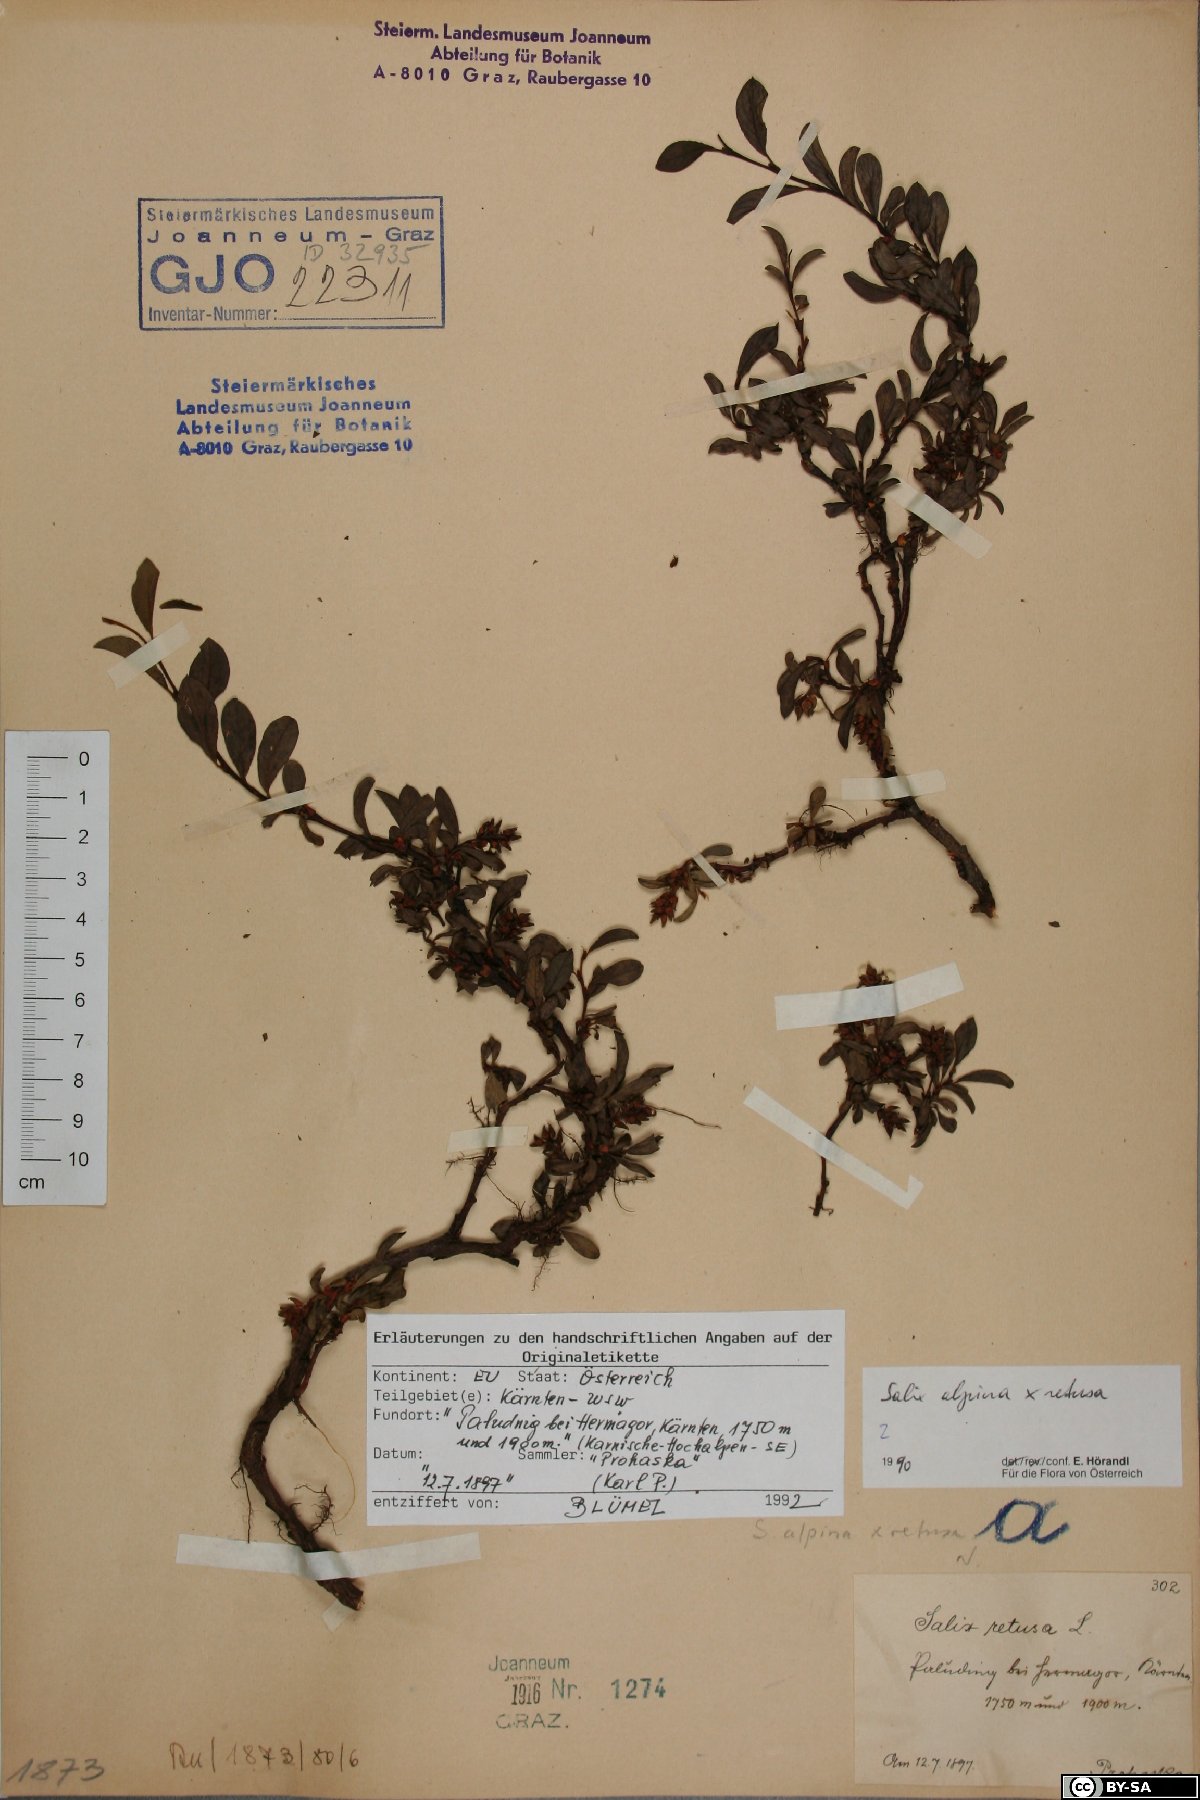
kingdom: Plantae
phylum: Tracheophyta
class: Magnoliopsida
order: Malpighiales
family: Salicaceae
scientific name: Salicaceae
